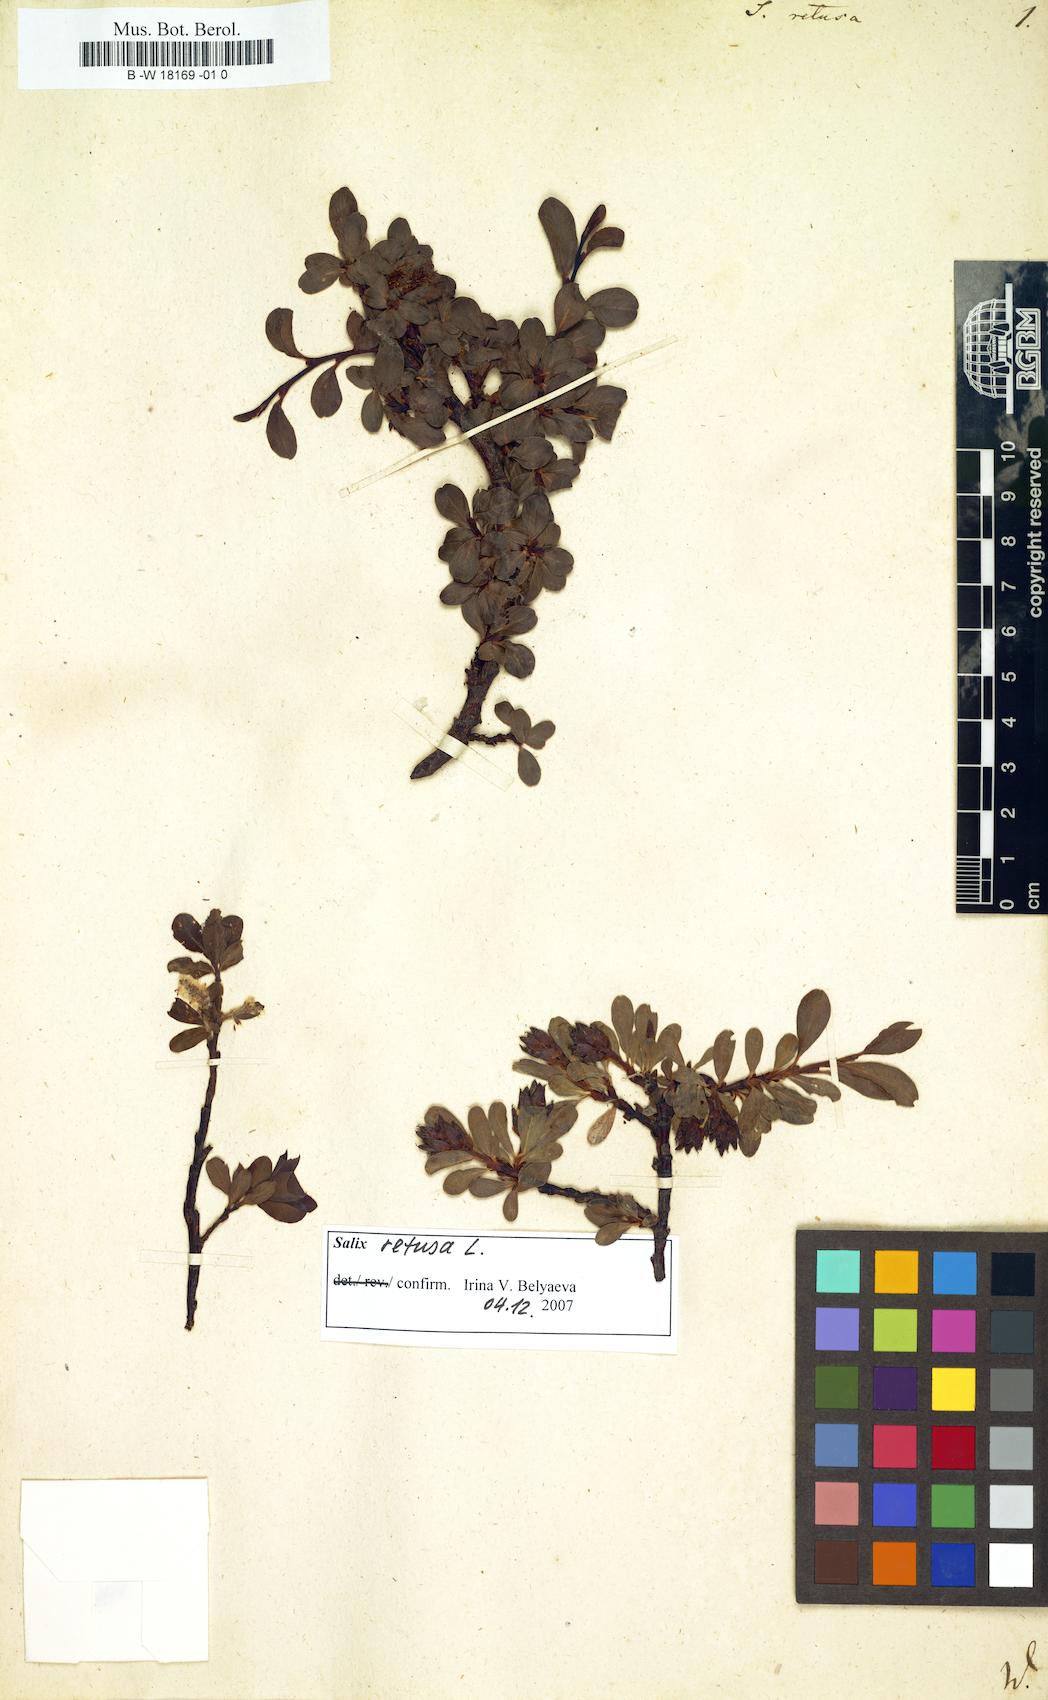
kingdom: Plantae
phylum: Tracheophyta
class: Magnoliopsida
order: Malpighiales
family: Salicaceae
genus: Salix
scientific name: Salix retusa
